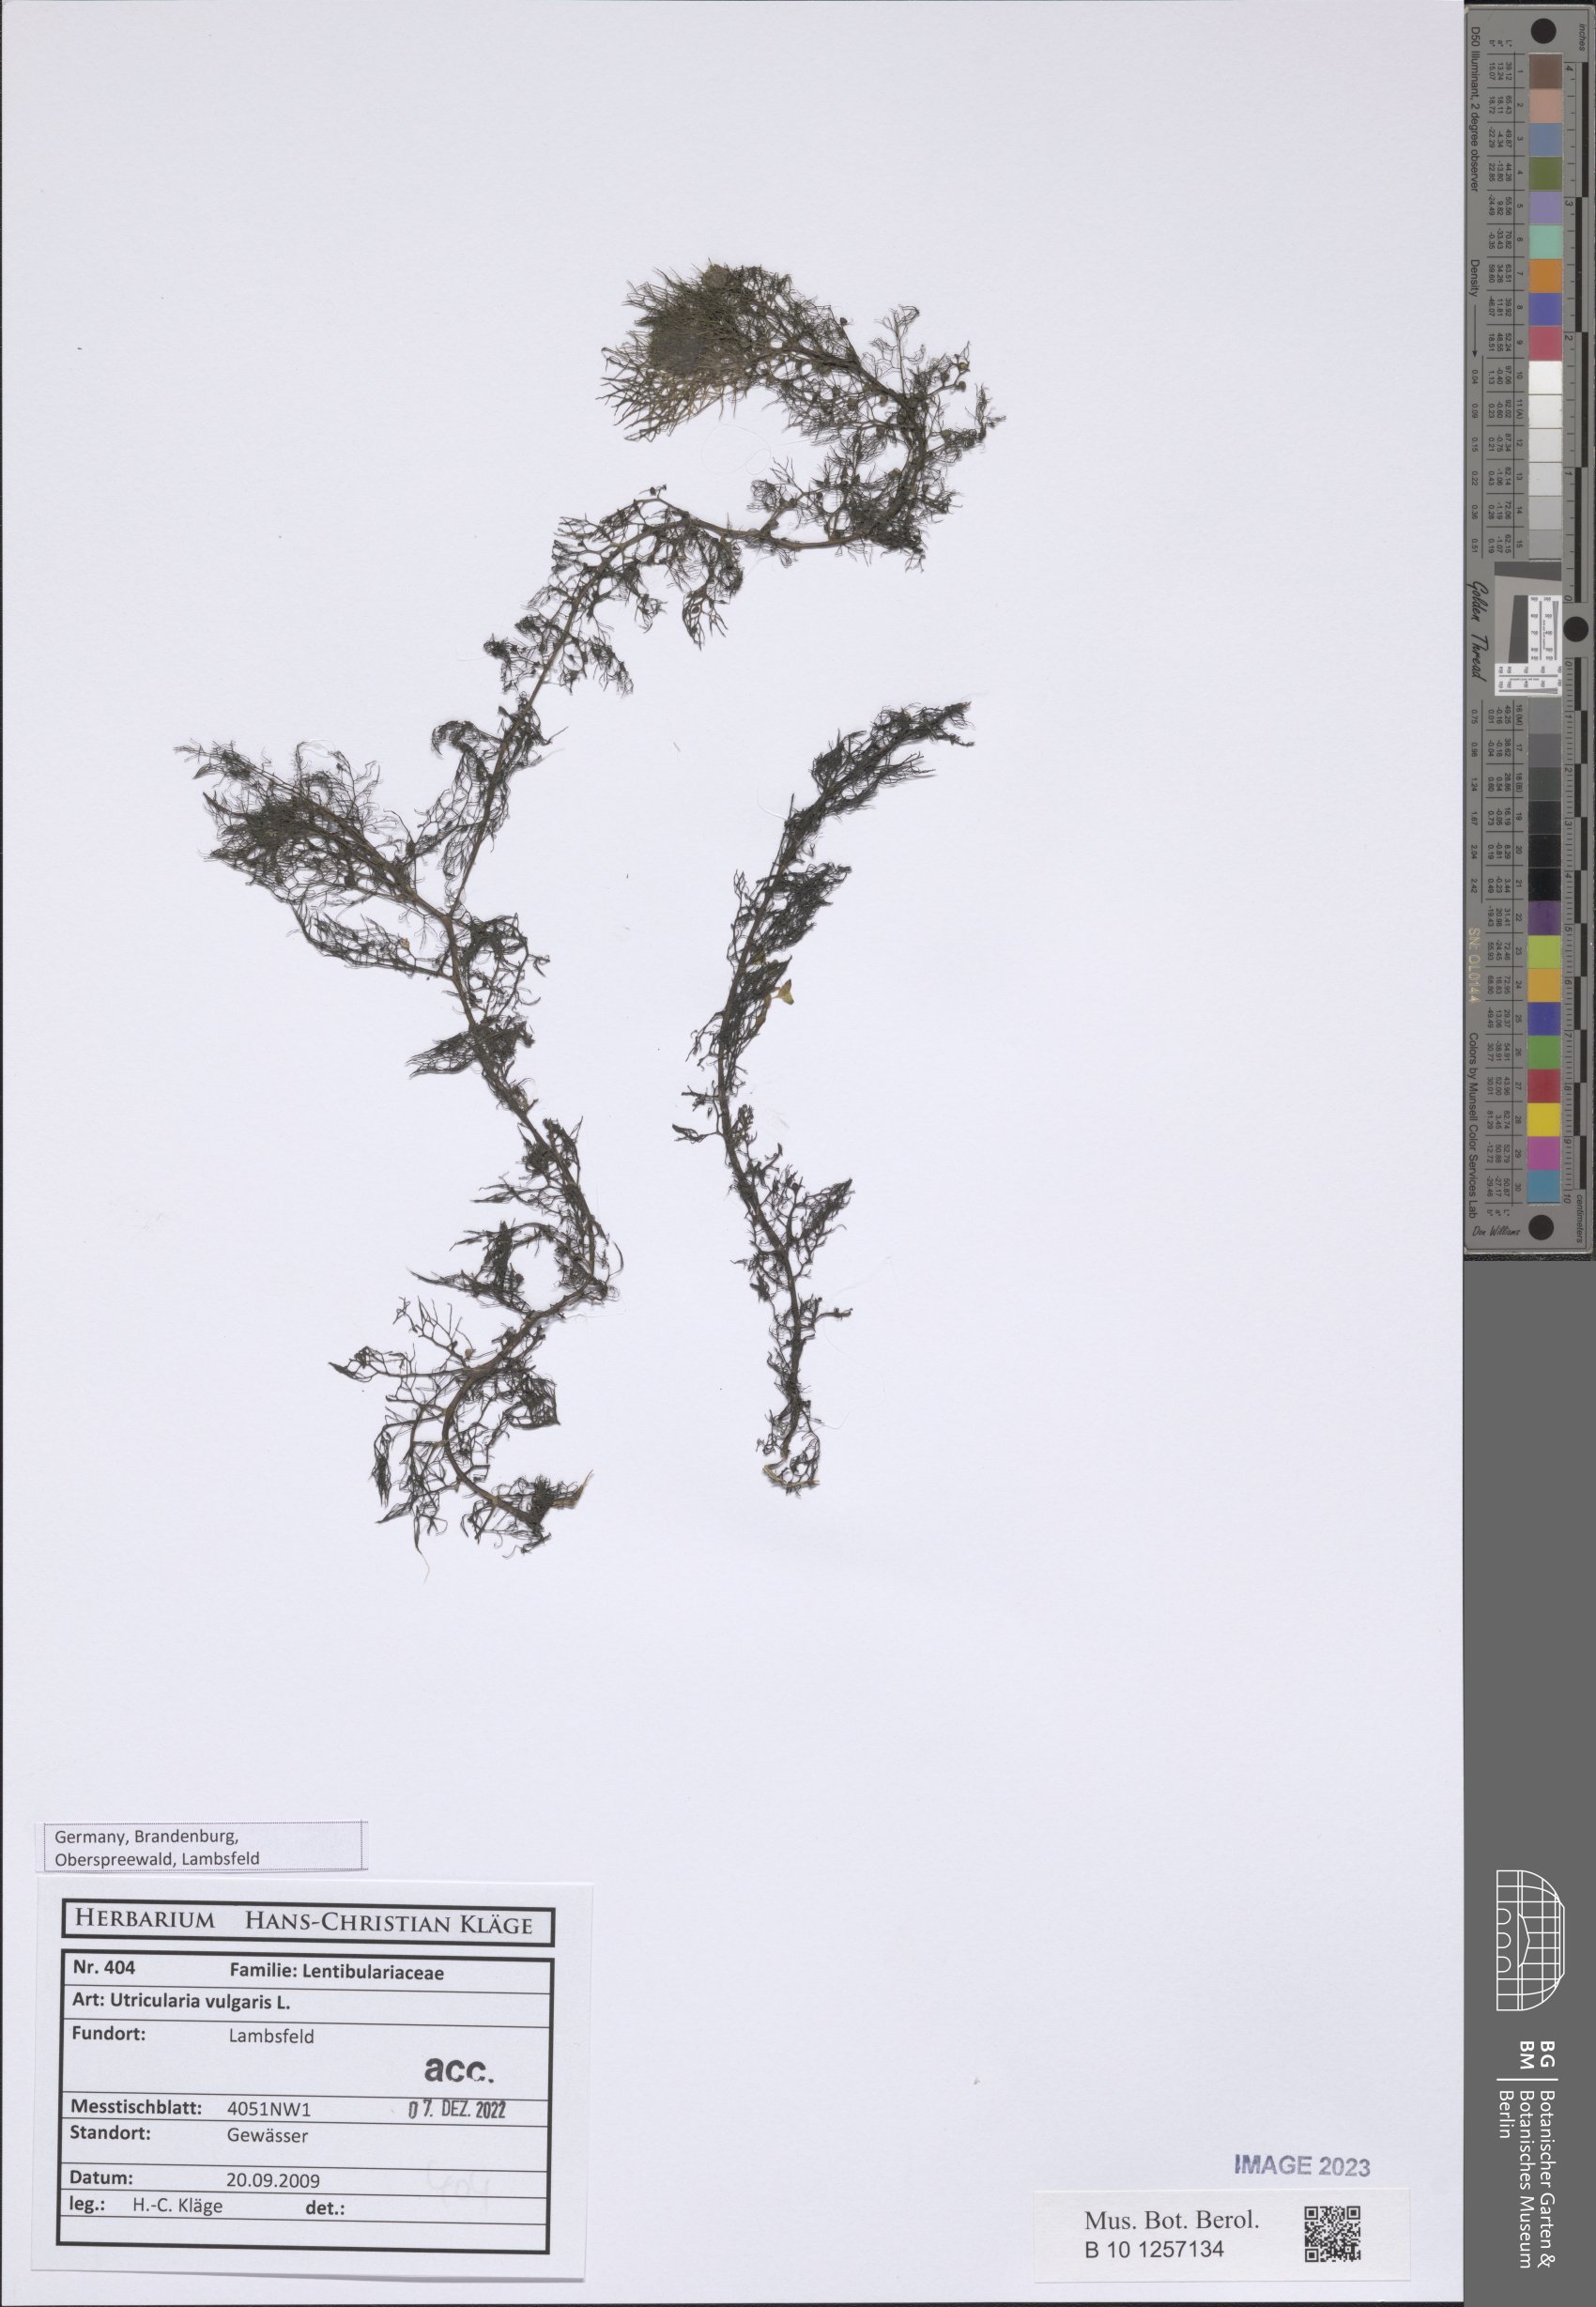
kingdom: Plantae
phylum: Tracheophyta
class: Magnoliopsida
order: Lamiales
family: Lentibulariaceae
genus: Utricularia
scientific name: Utricularia vulgaris
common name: Greater bladderwort
